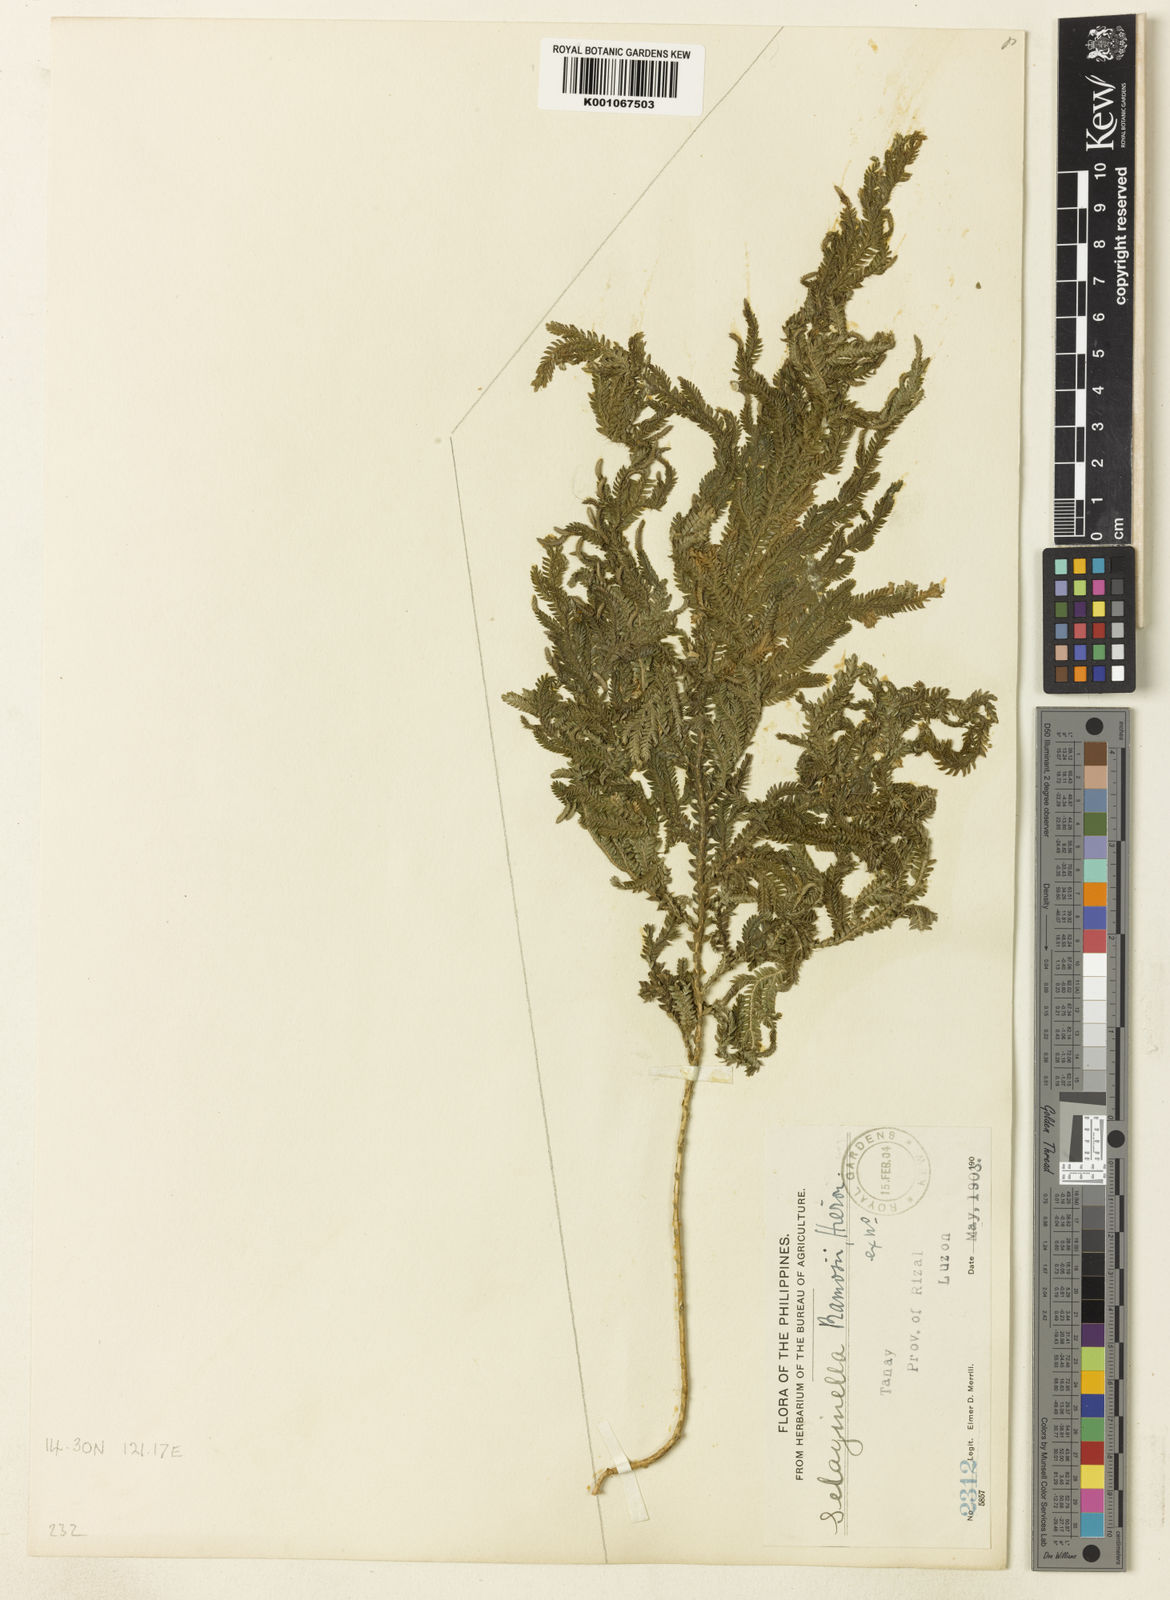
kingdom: Plantae
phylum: Tracheophyta
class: Lycopodiopsida
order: Selaginellales
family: Selaginellaceae
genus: Selaginella
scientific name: Selaginella ramosii
